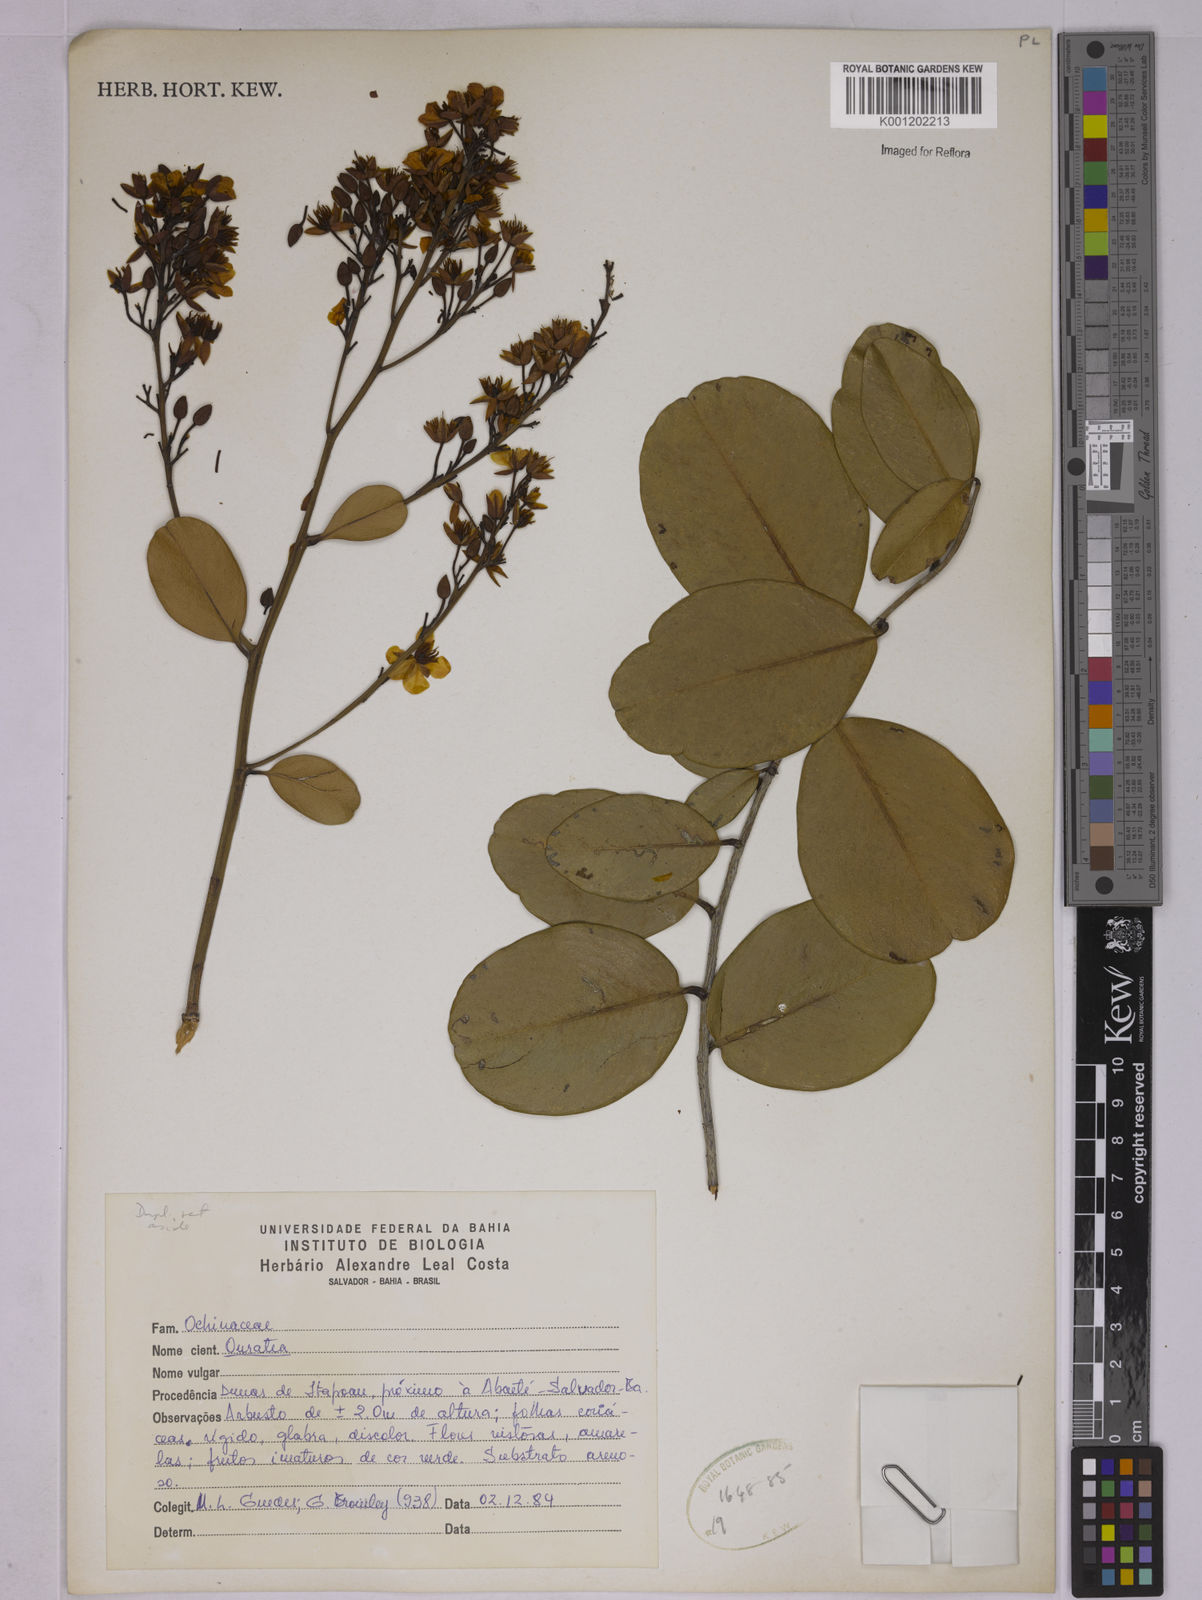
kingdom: Plantae
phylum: Tracheophyta
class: Magnoliopsida
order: Malpighiales
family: Ochnaceae
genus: Ouratea
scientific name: Ouratea
